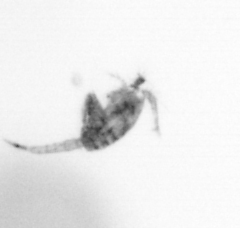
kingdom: Animalia
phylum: Arthropoda
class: Copepoda
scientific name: Copepoda
